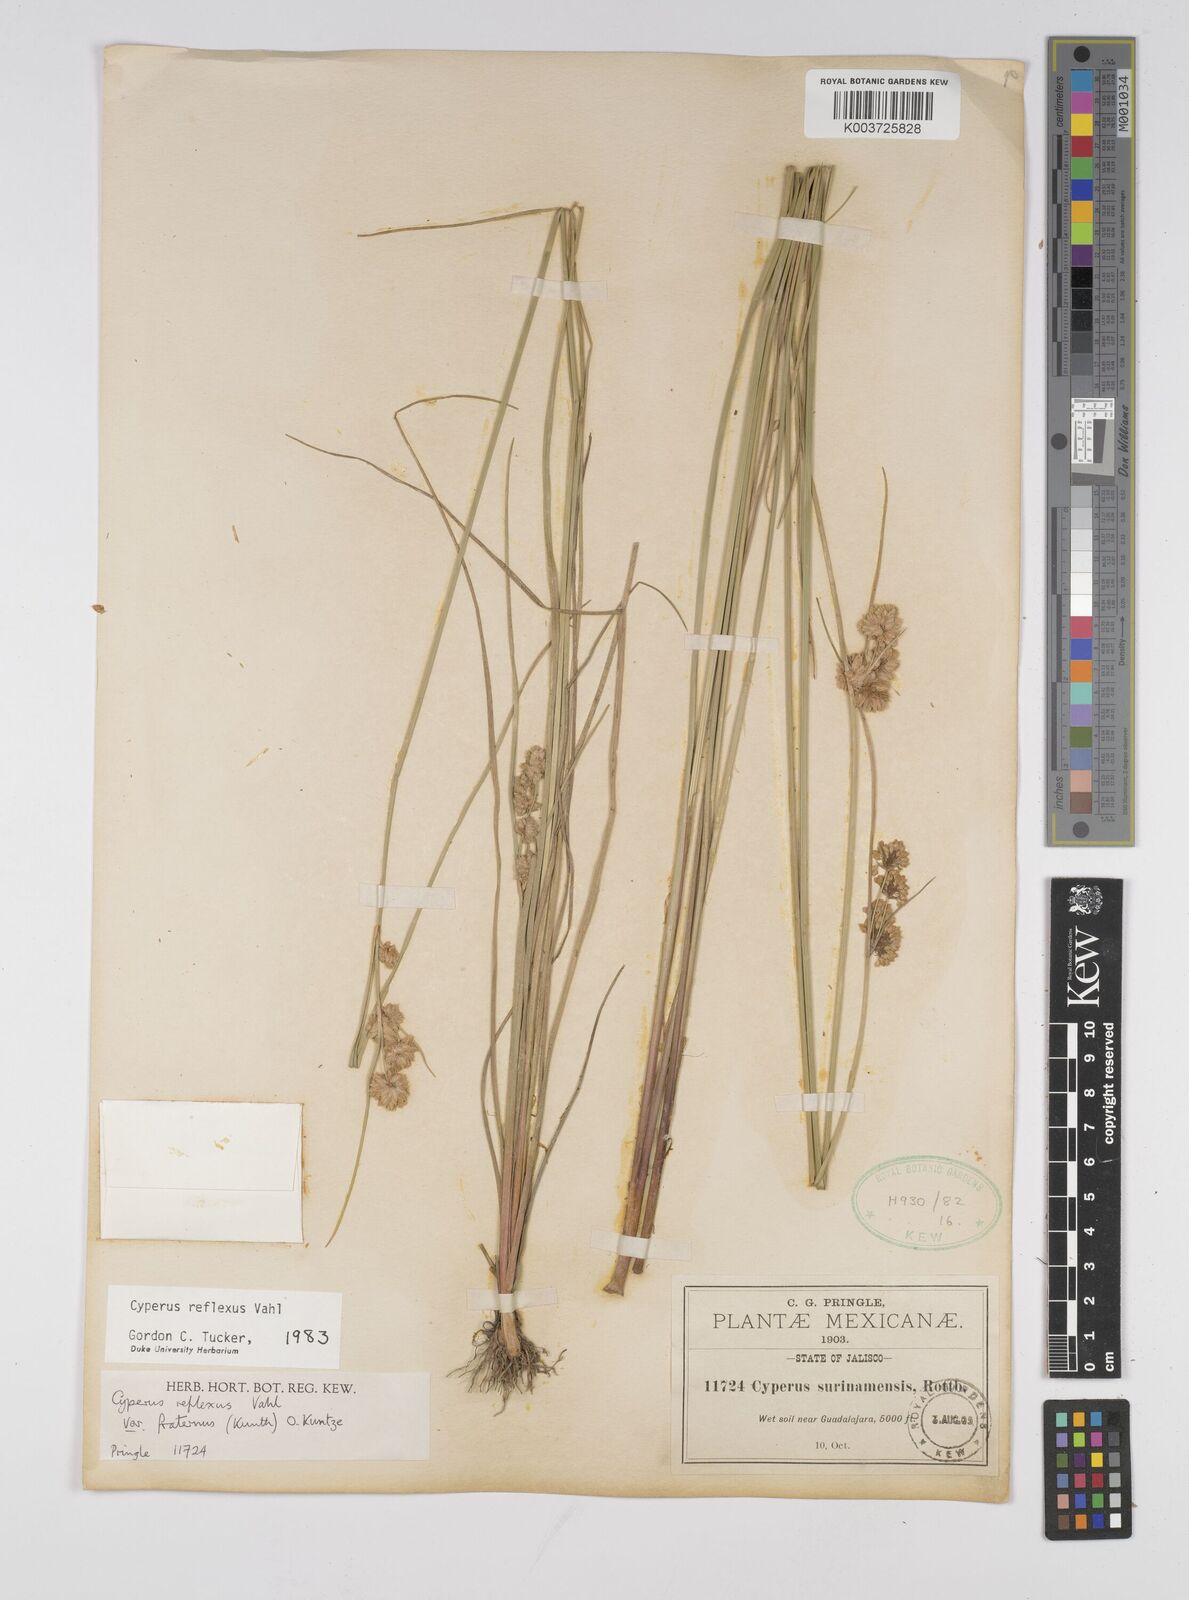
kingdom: Plantae
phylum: Tracheophyta
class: Liliopsida
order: Poales
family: Cyperaceae
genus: Cyperus
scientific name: Cyperus reflexus
